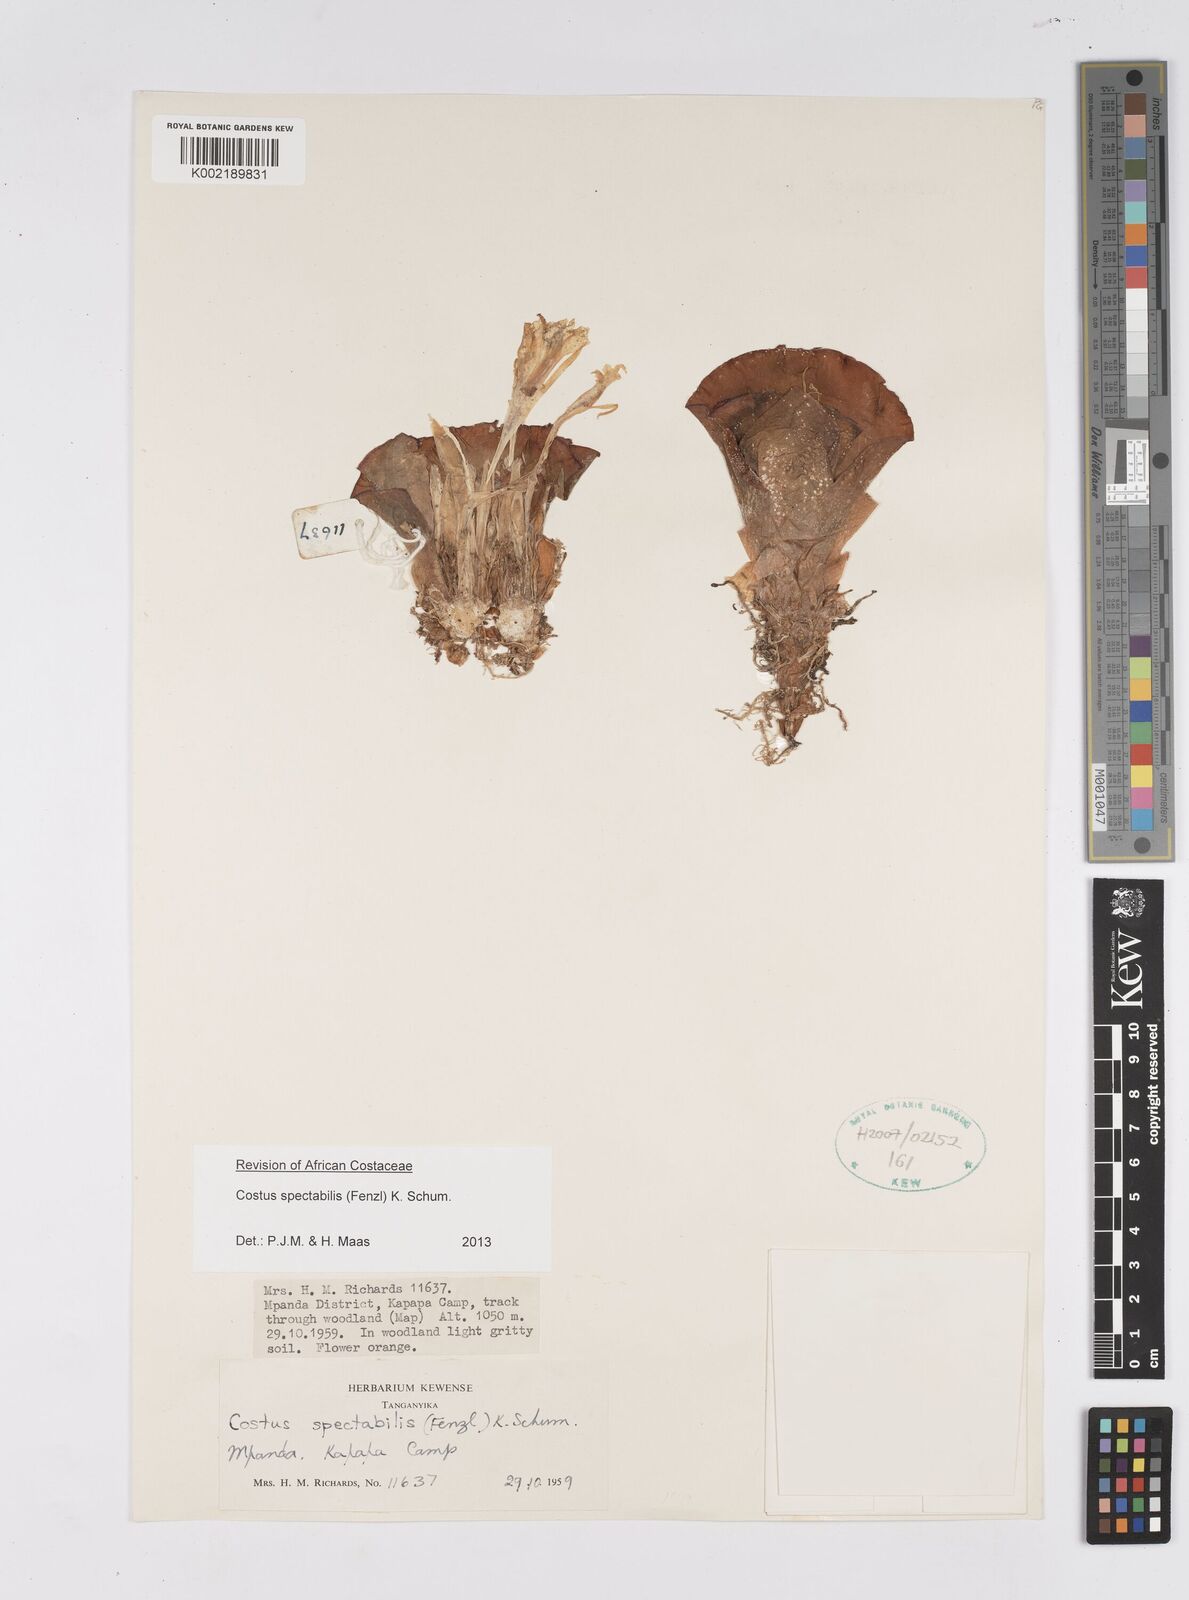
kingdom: Plantae
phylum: Tracheophyta
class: Liliopsida
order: Zingiberales
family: Costaceae
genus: Costus
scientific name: Costus spectabilis
